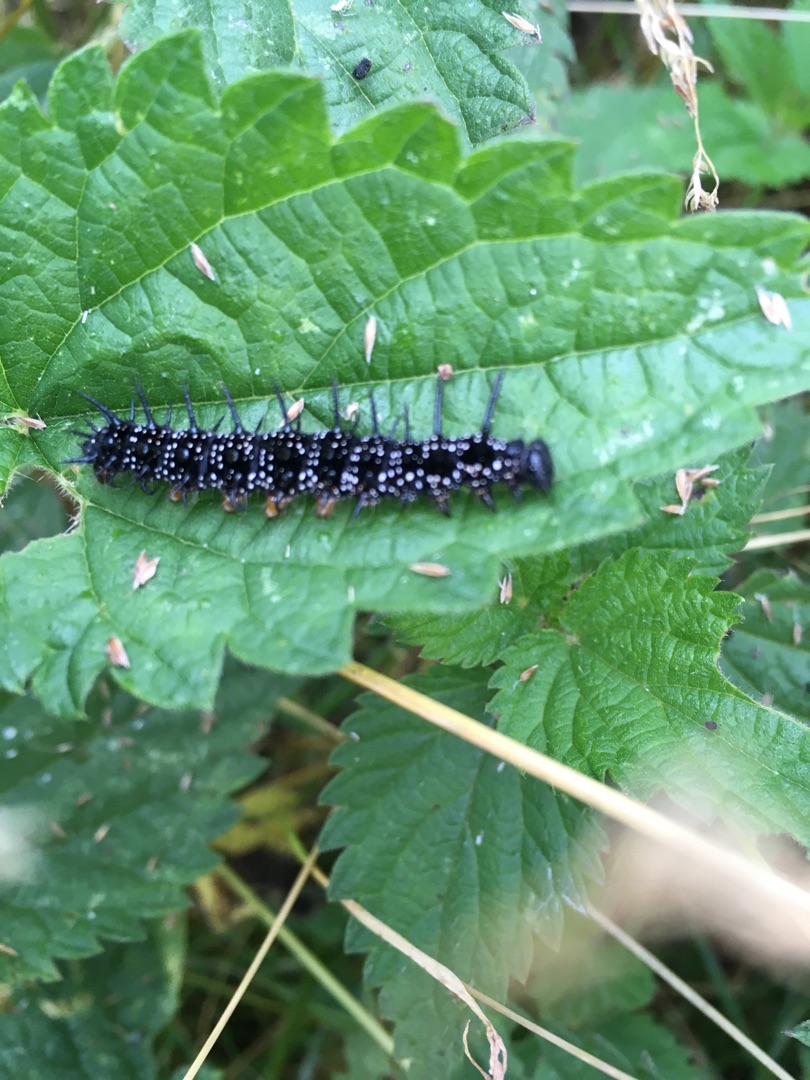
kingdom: Animalia
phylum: Arthropoda
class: Insecta
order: Lepidoptera
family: Nymphalidae
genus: Aglais
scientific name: Aglais io
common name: Dagpåfugleøje
